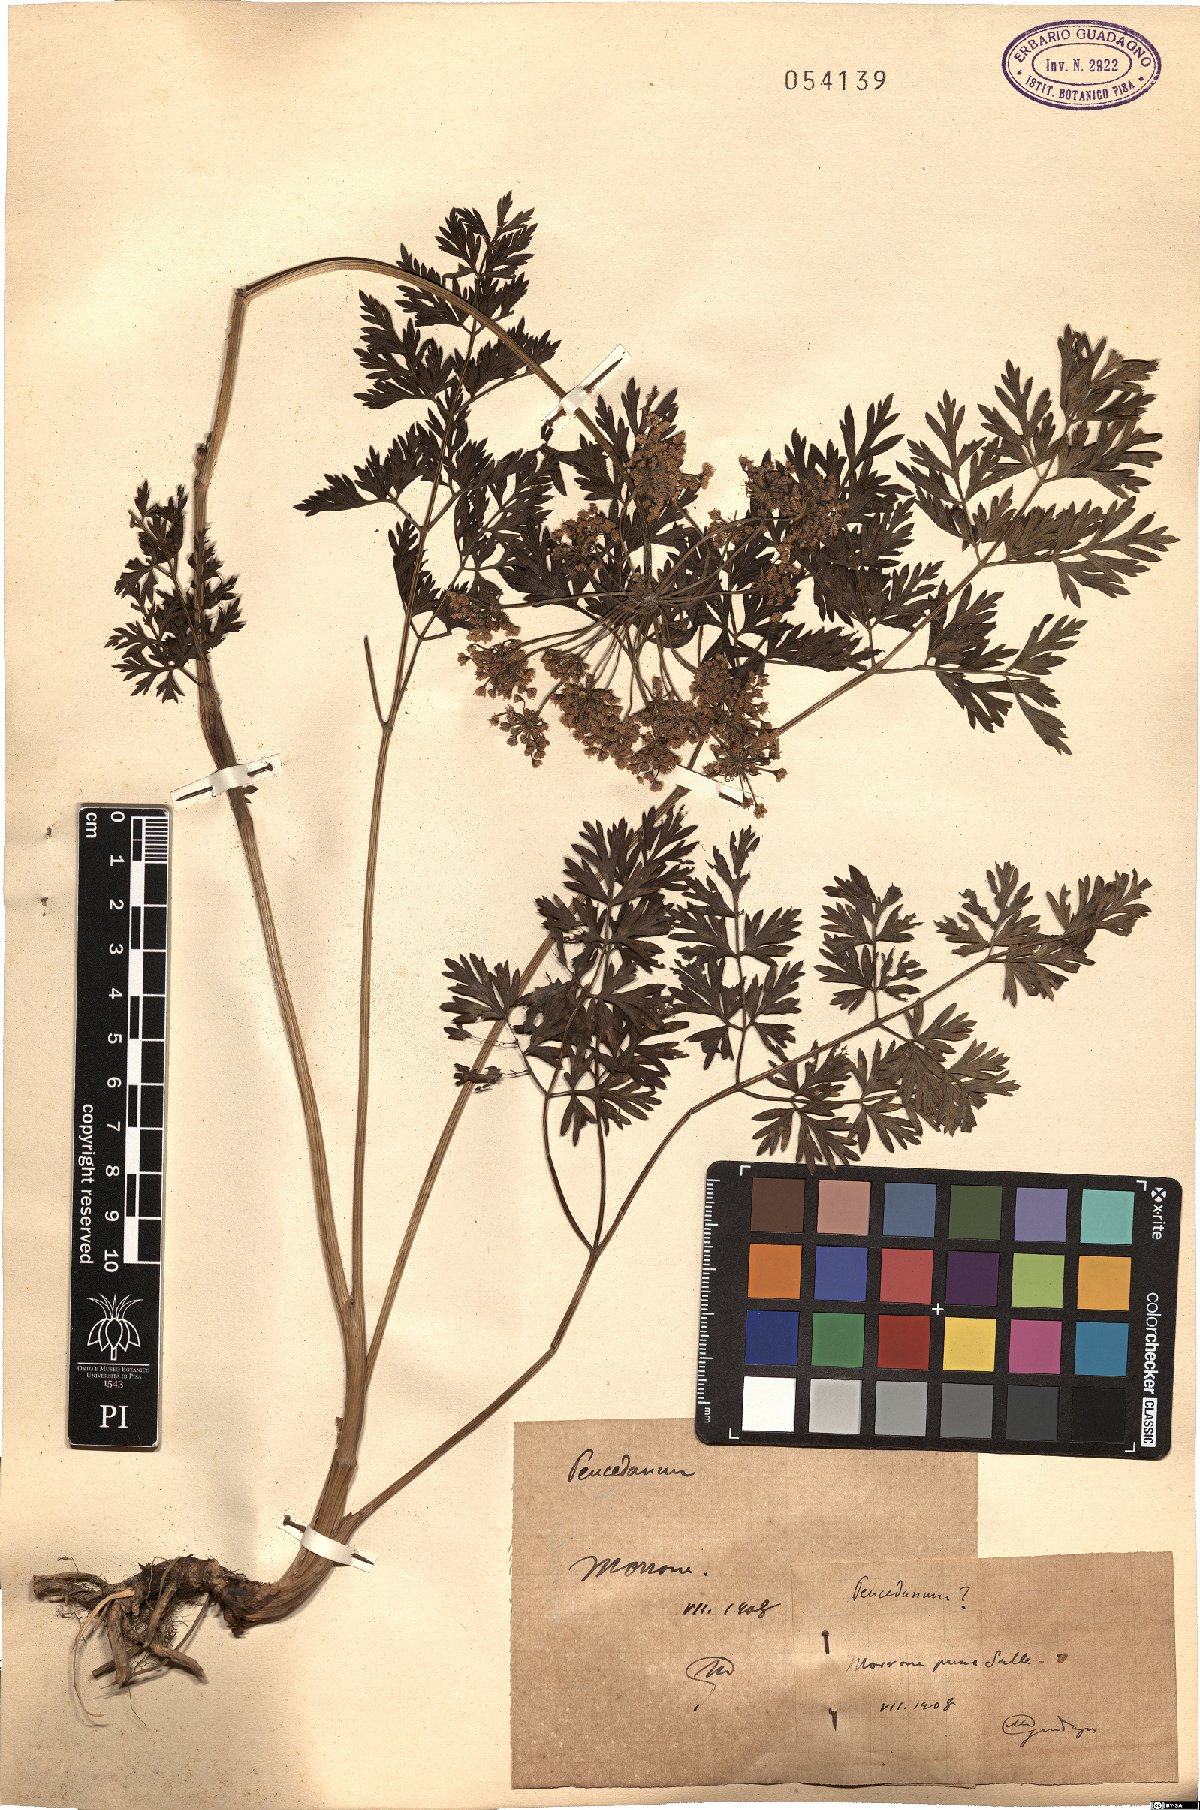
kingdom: Plantae
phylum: Tracheophyta
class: Magnoliopsida
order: Apiales
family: Apiaceae
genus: Peucedanum
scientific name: Peucedanum
